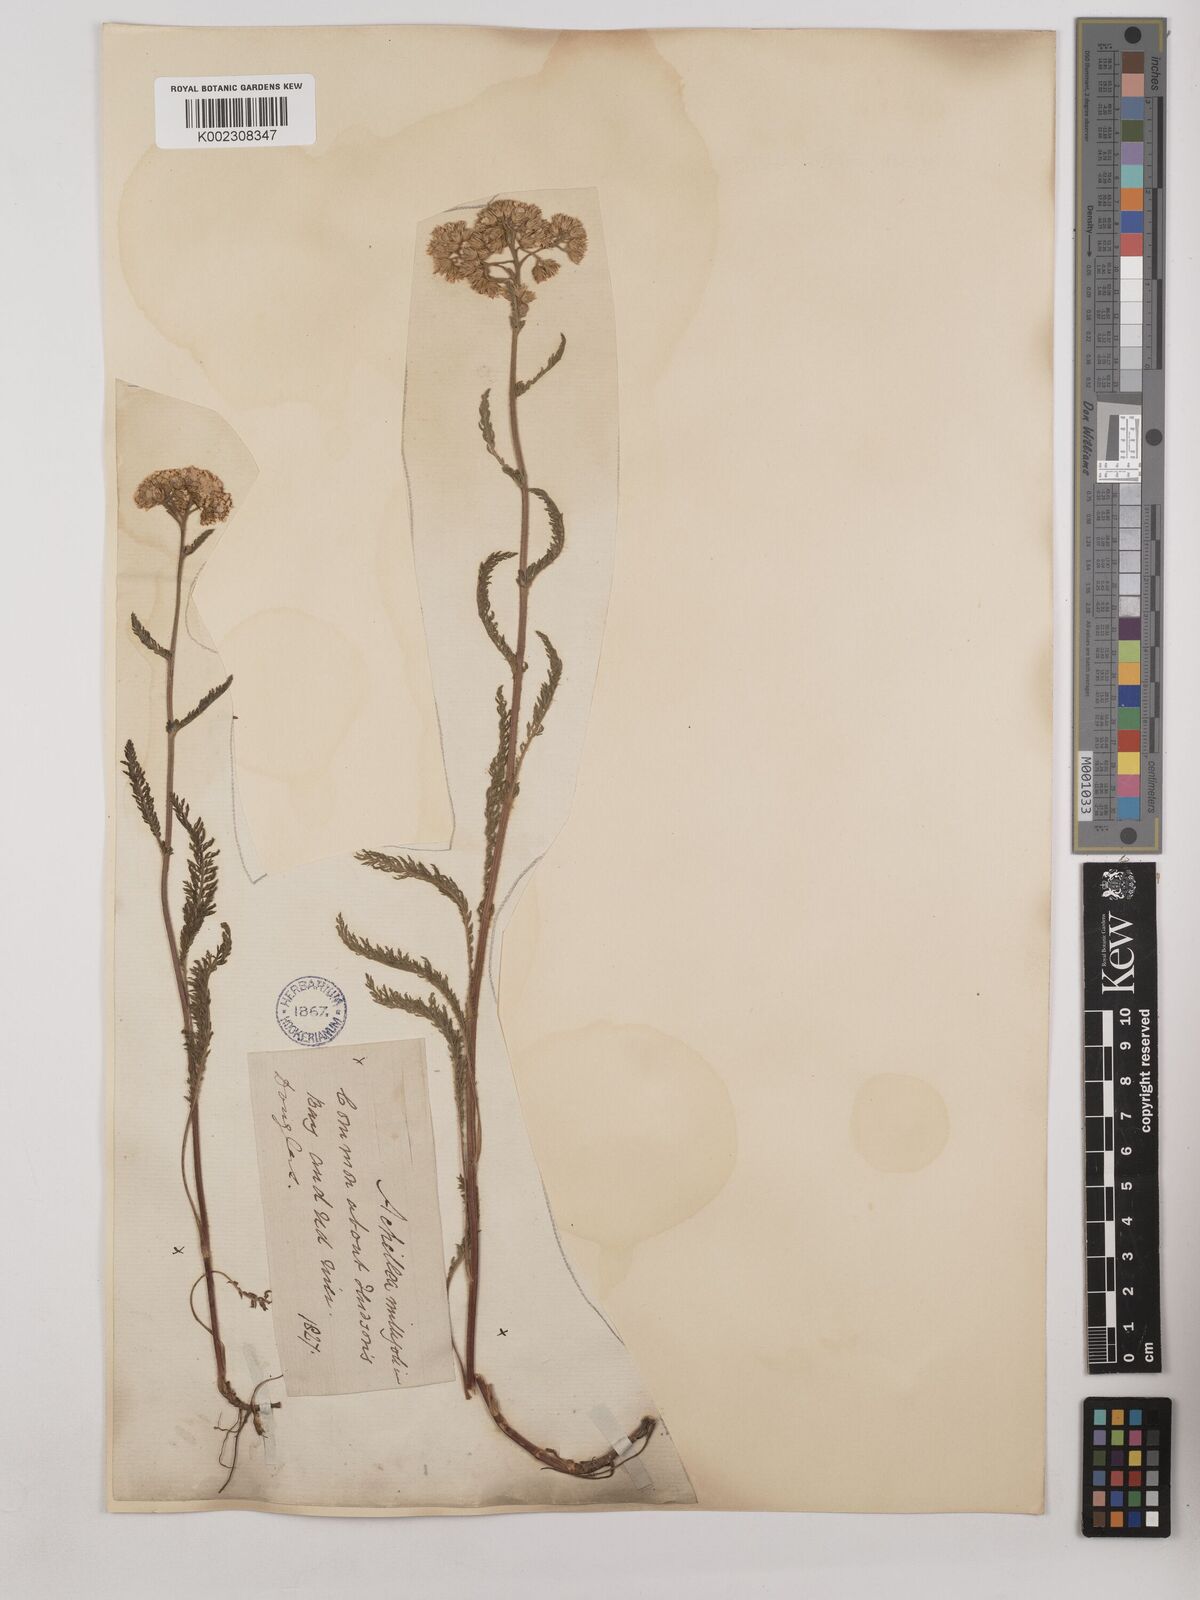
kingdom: Plantae
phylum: Tracheophyta
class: Magnoliopsida
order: Asterales
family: Asteraceae
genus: Achillea
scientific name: Achillea millefolium
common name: Yarrow
